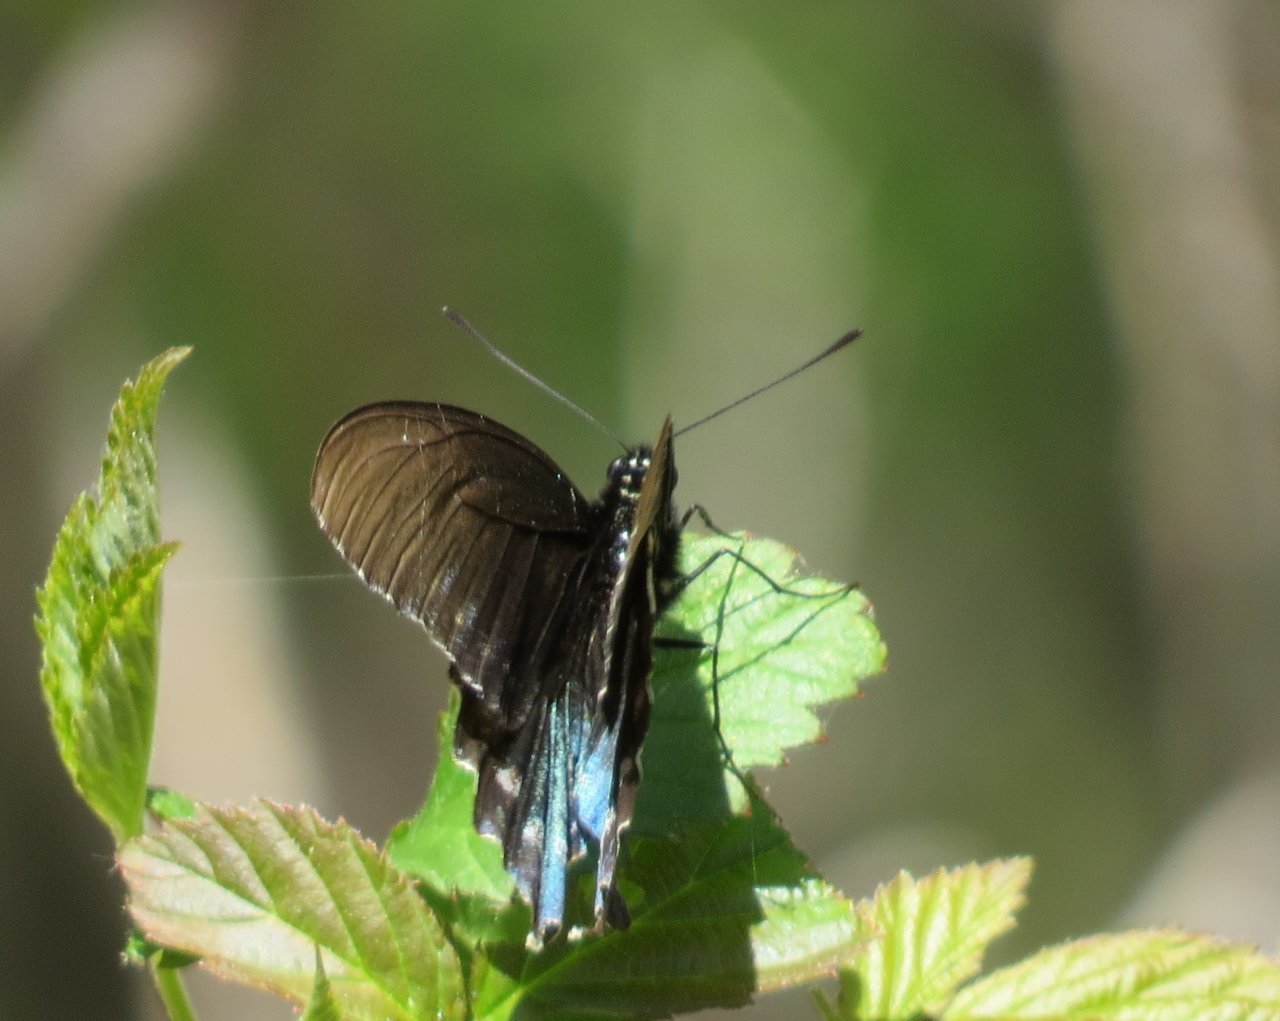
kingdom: Animalia
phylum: Arthropoda
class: Insecta
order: Lepidoptera
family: Papilionidae
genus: Battus
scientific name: Battus philenor
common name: Pipevine Swallowtail
